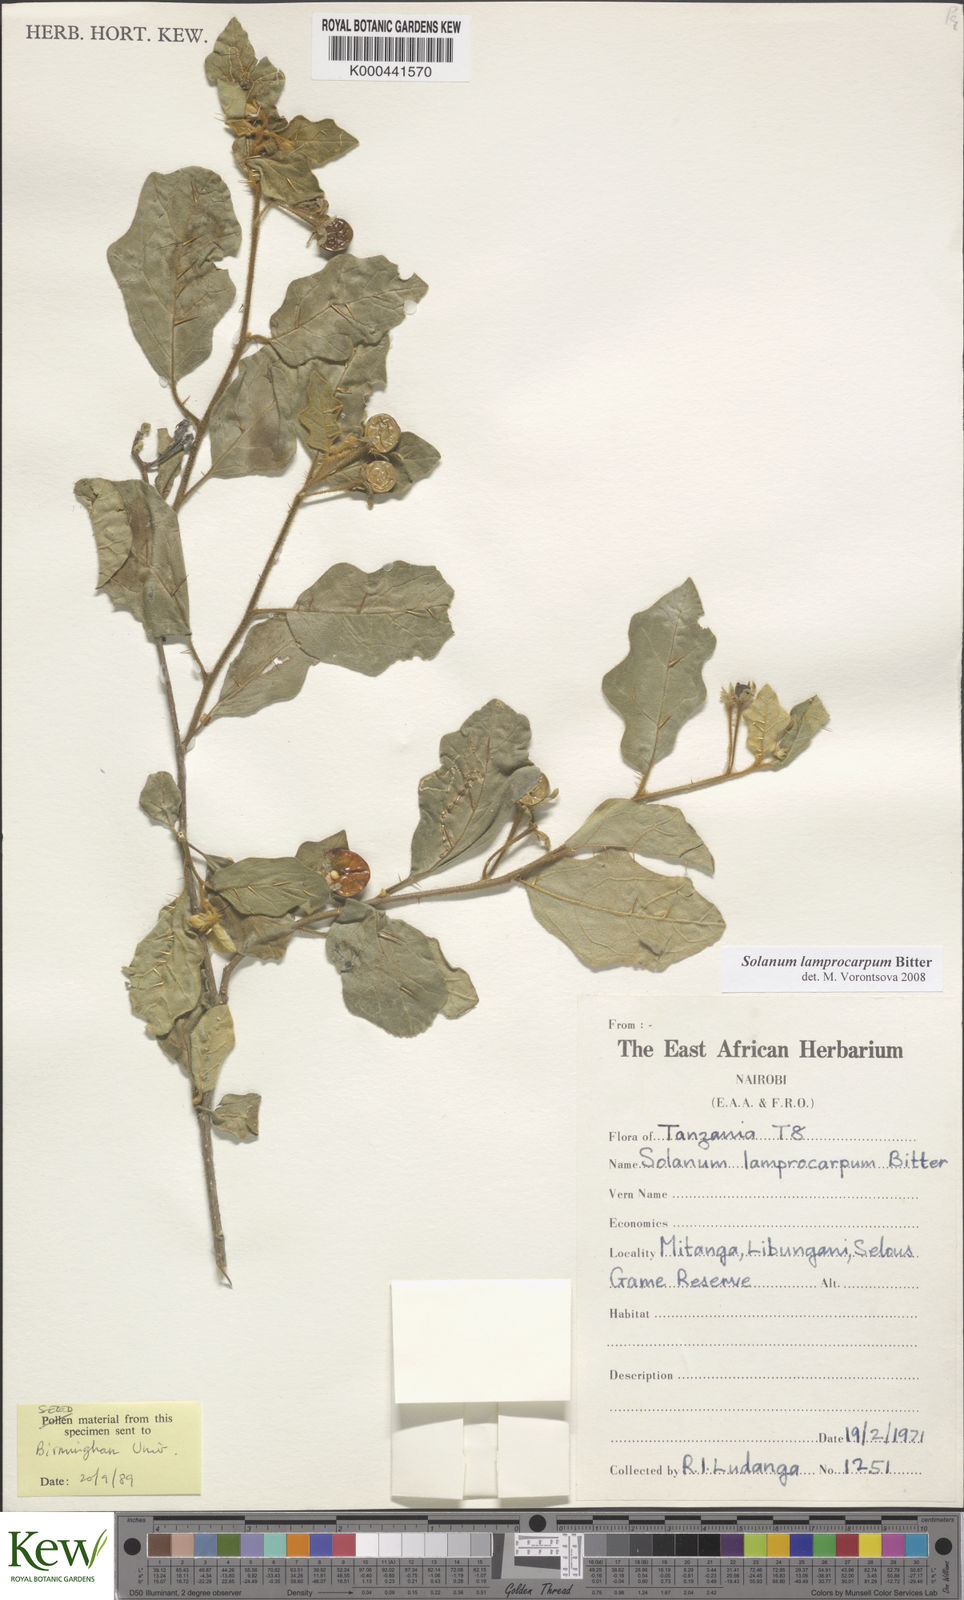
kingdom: Plantae
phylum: Tracheophyta
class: Magnoliopsida
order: Solanales
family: Solanaceae
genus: Solanum
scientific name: Solanum lamprocarpum
